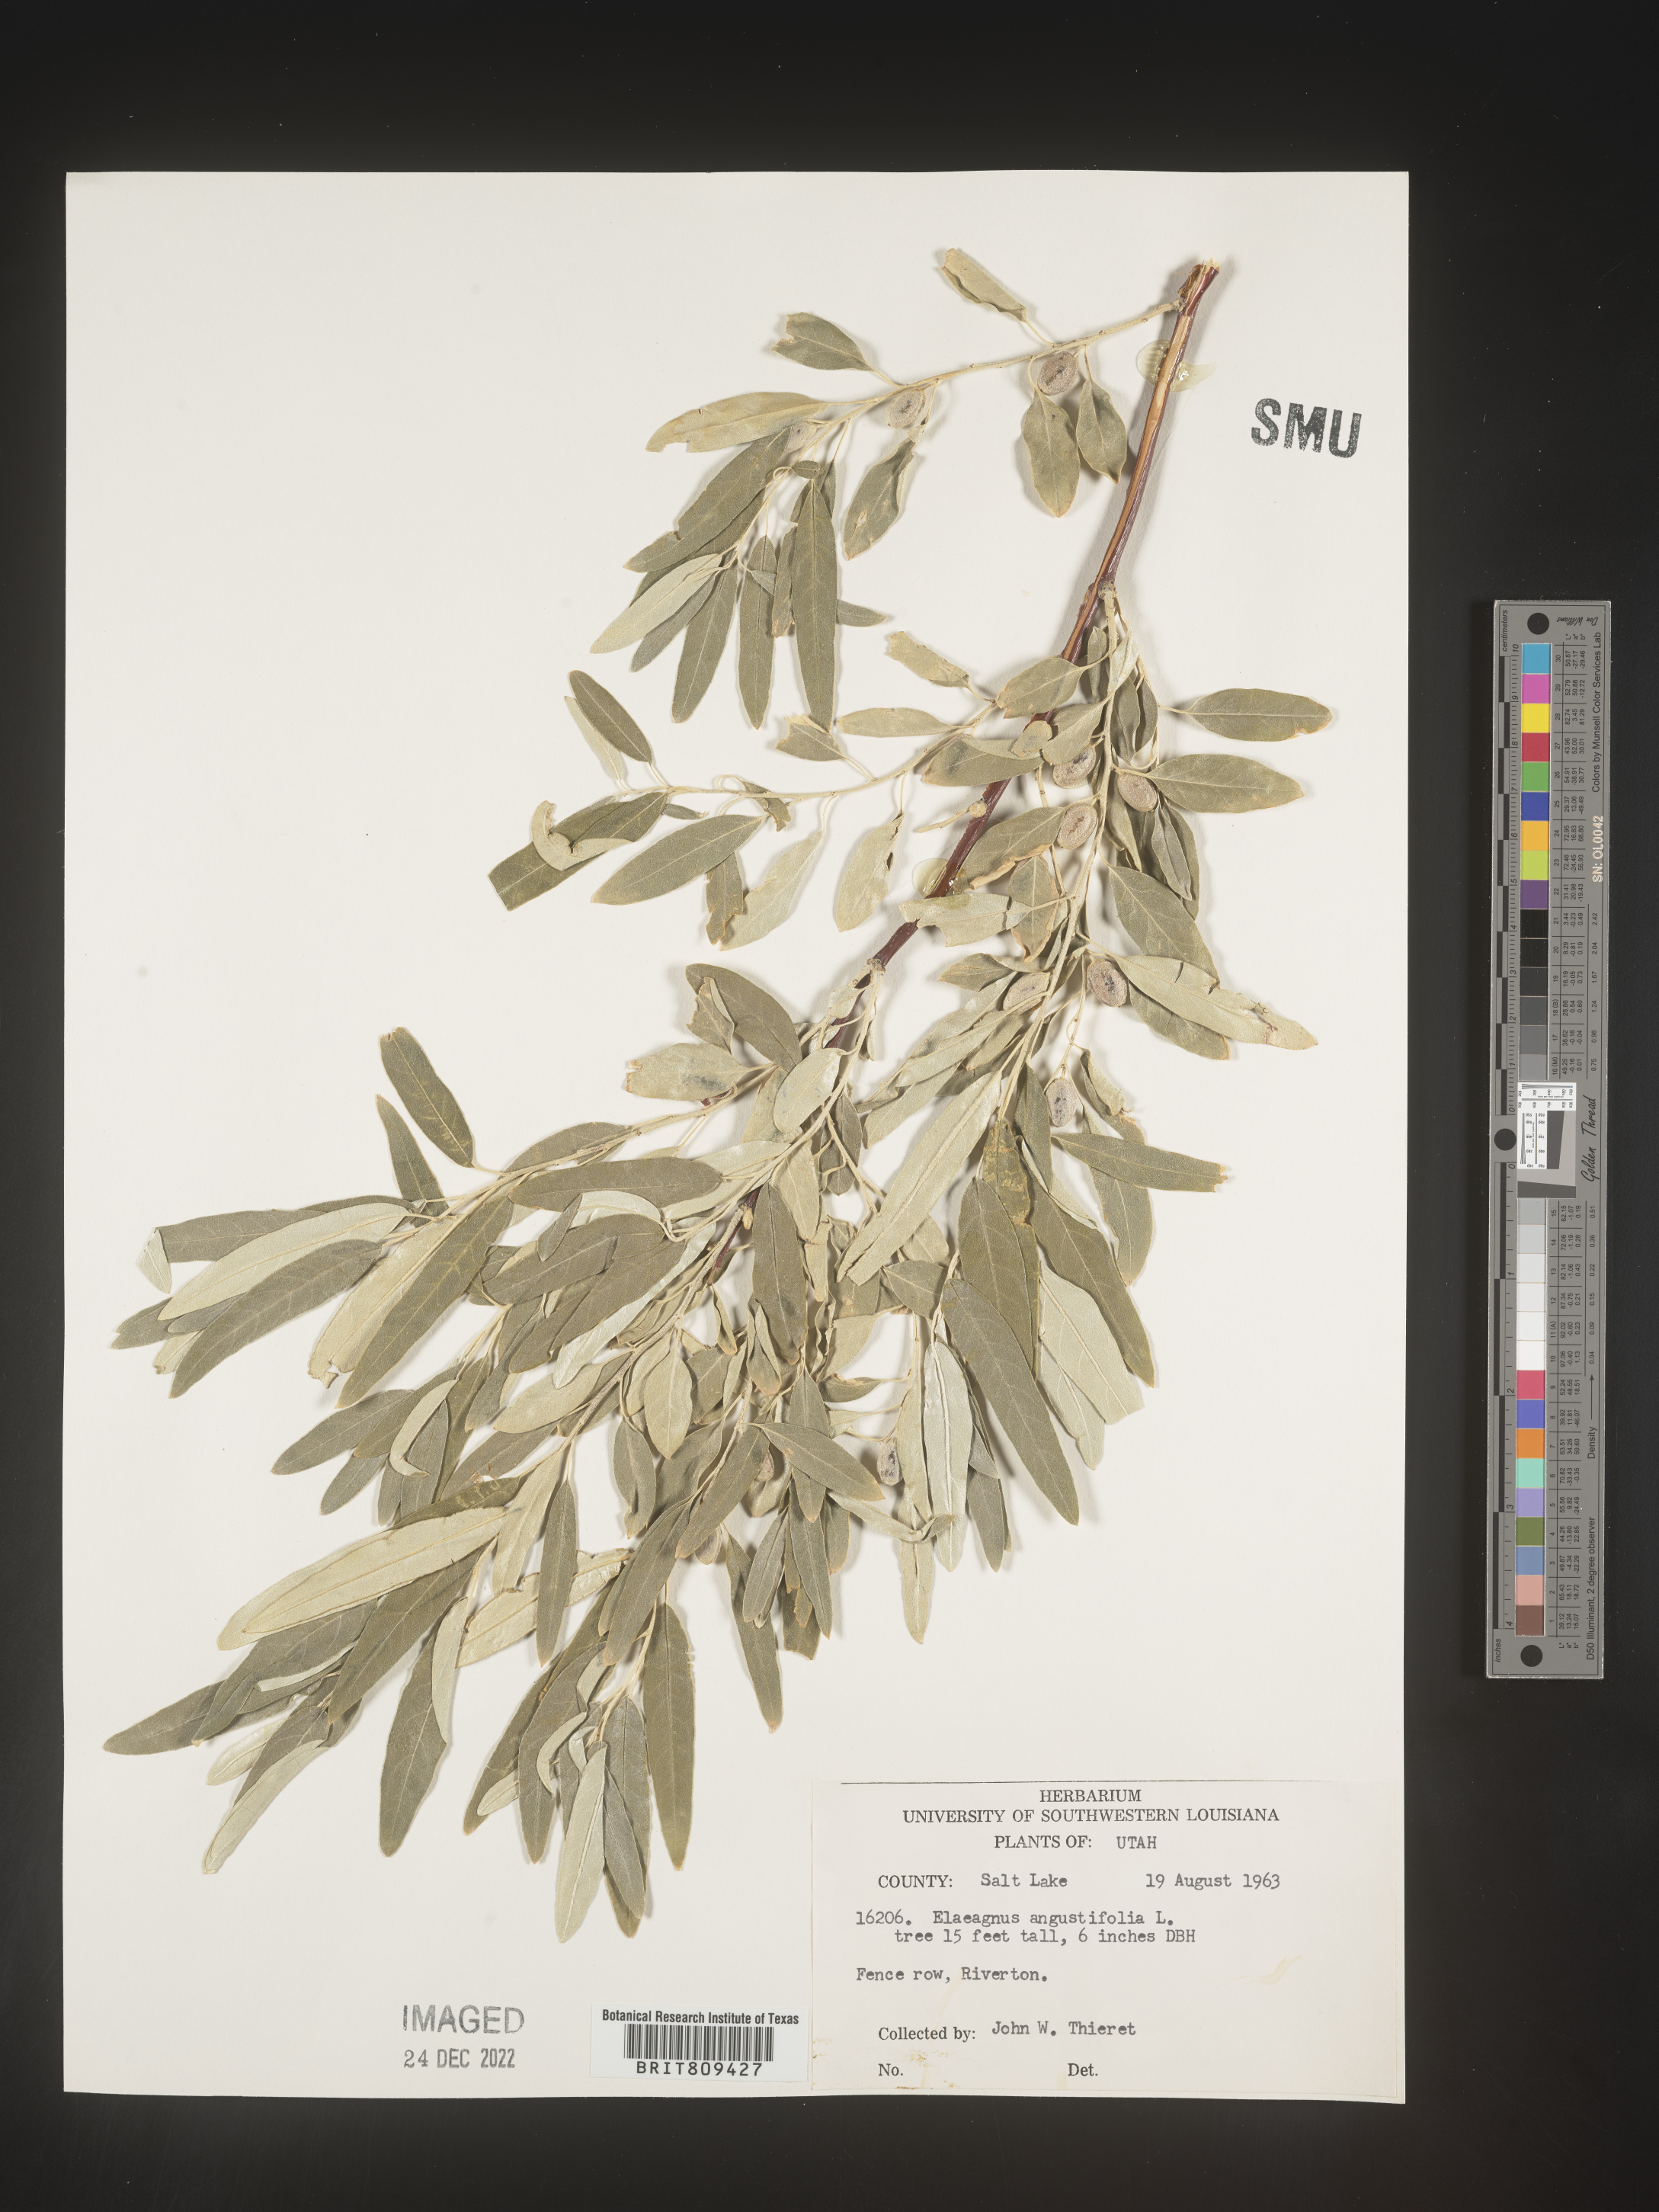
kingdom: Plantae
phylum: Tracheophyta
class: Magnoliopsida
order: Rosales
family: Elaeagnaceae
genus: Elaeagnus
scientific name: Elaeagnus
